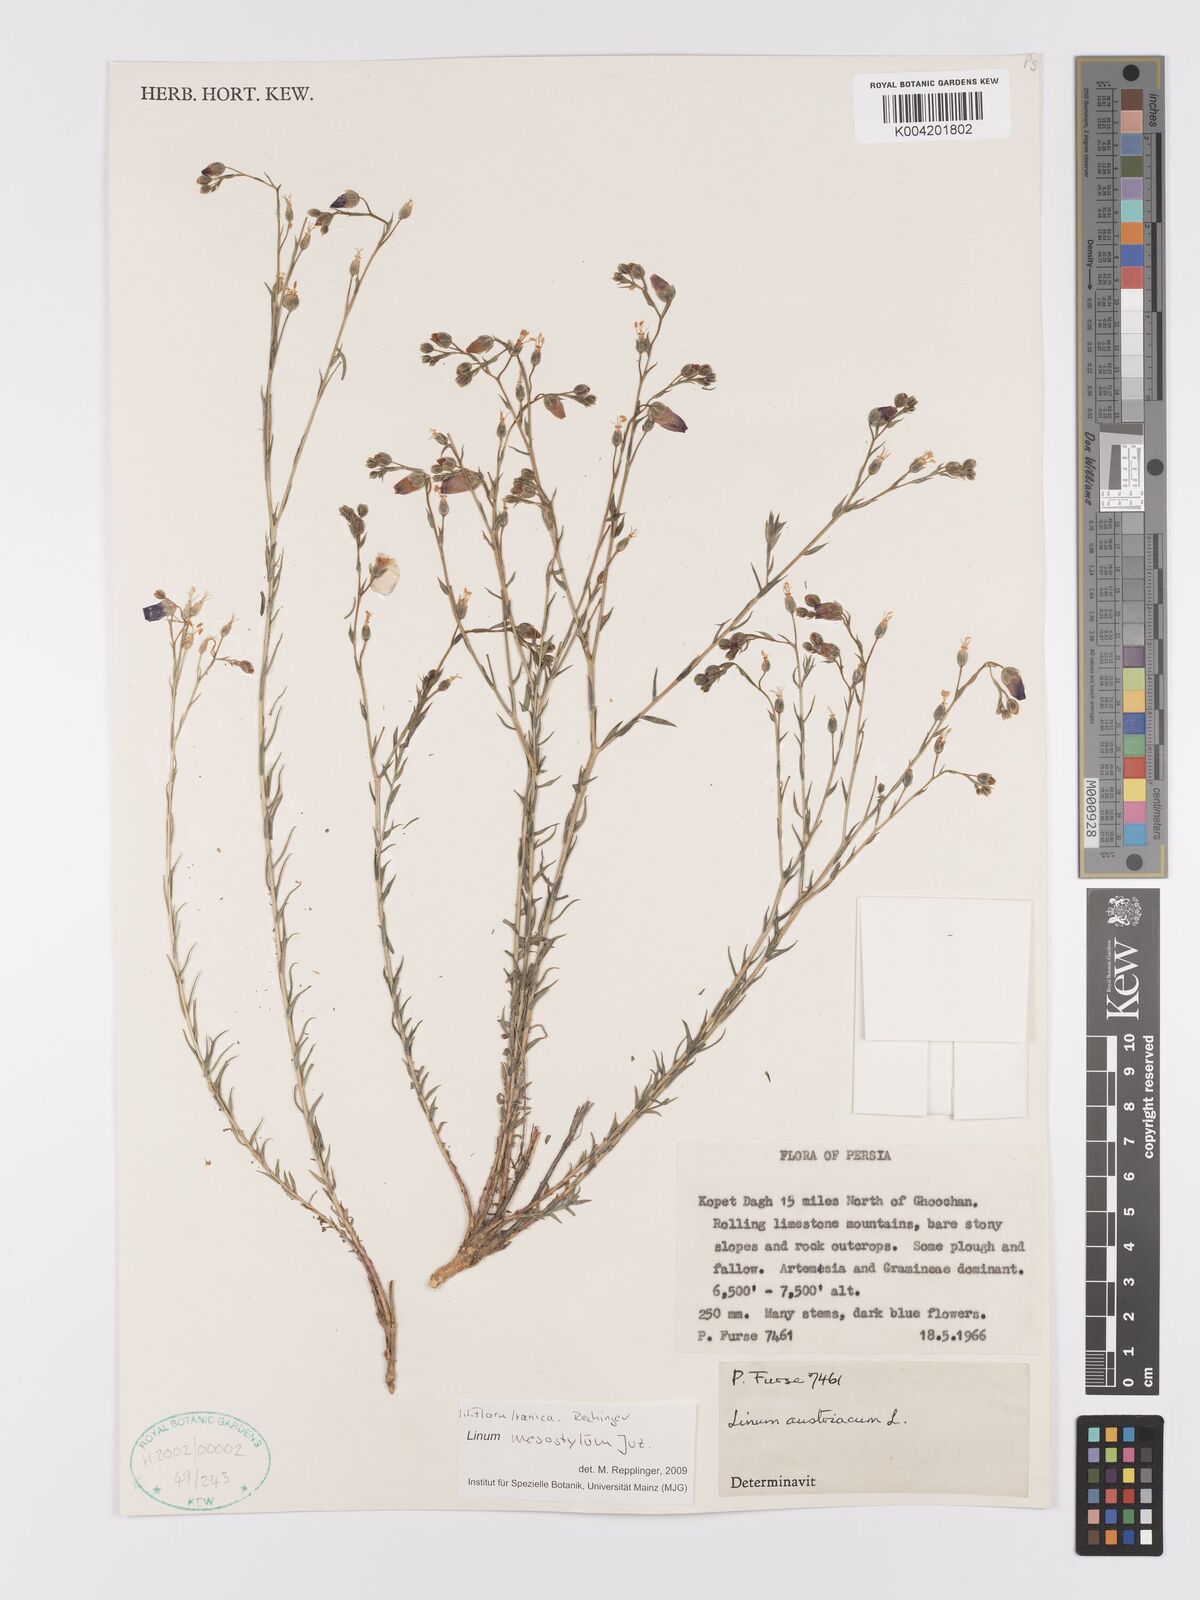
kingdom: Plantae
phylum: Tracheophyta
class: Magnoliopsida
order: Malpighiales
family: Linaceae
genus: Linum
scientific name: Linum
